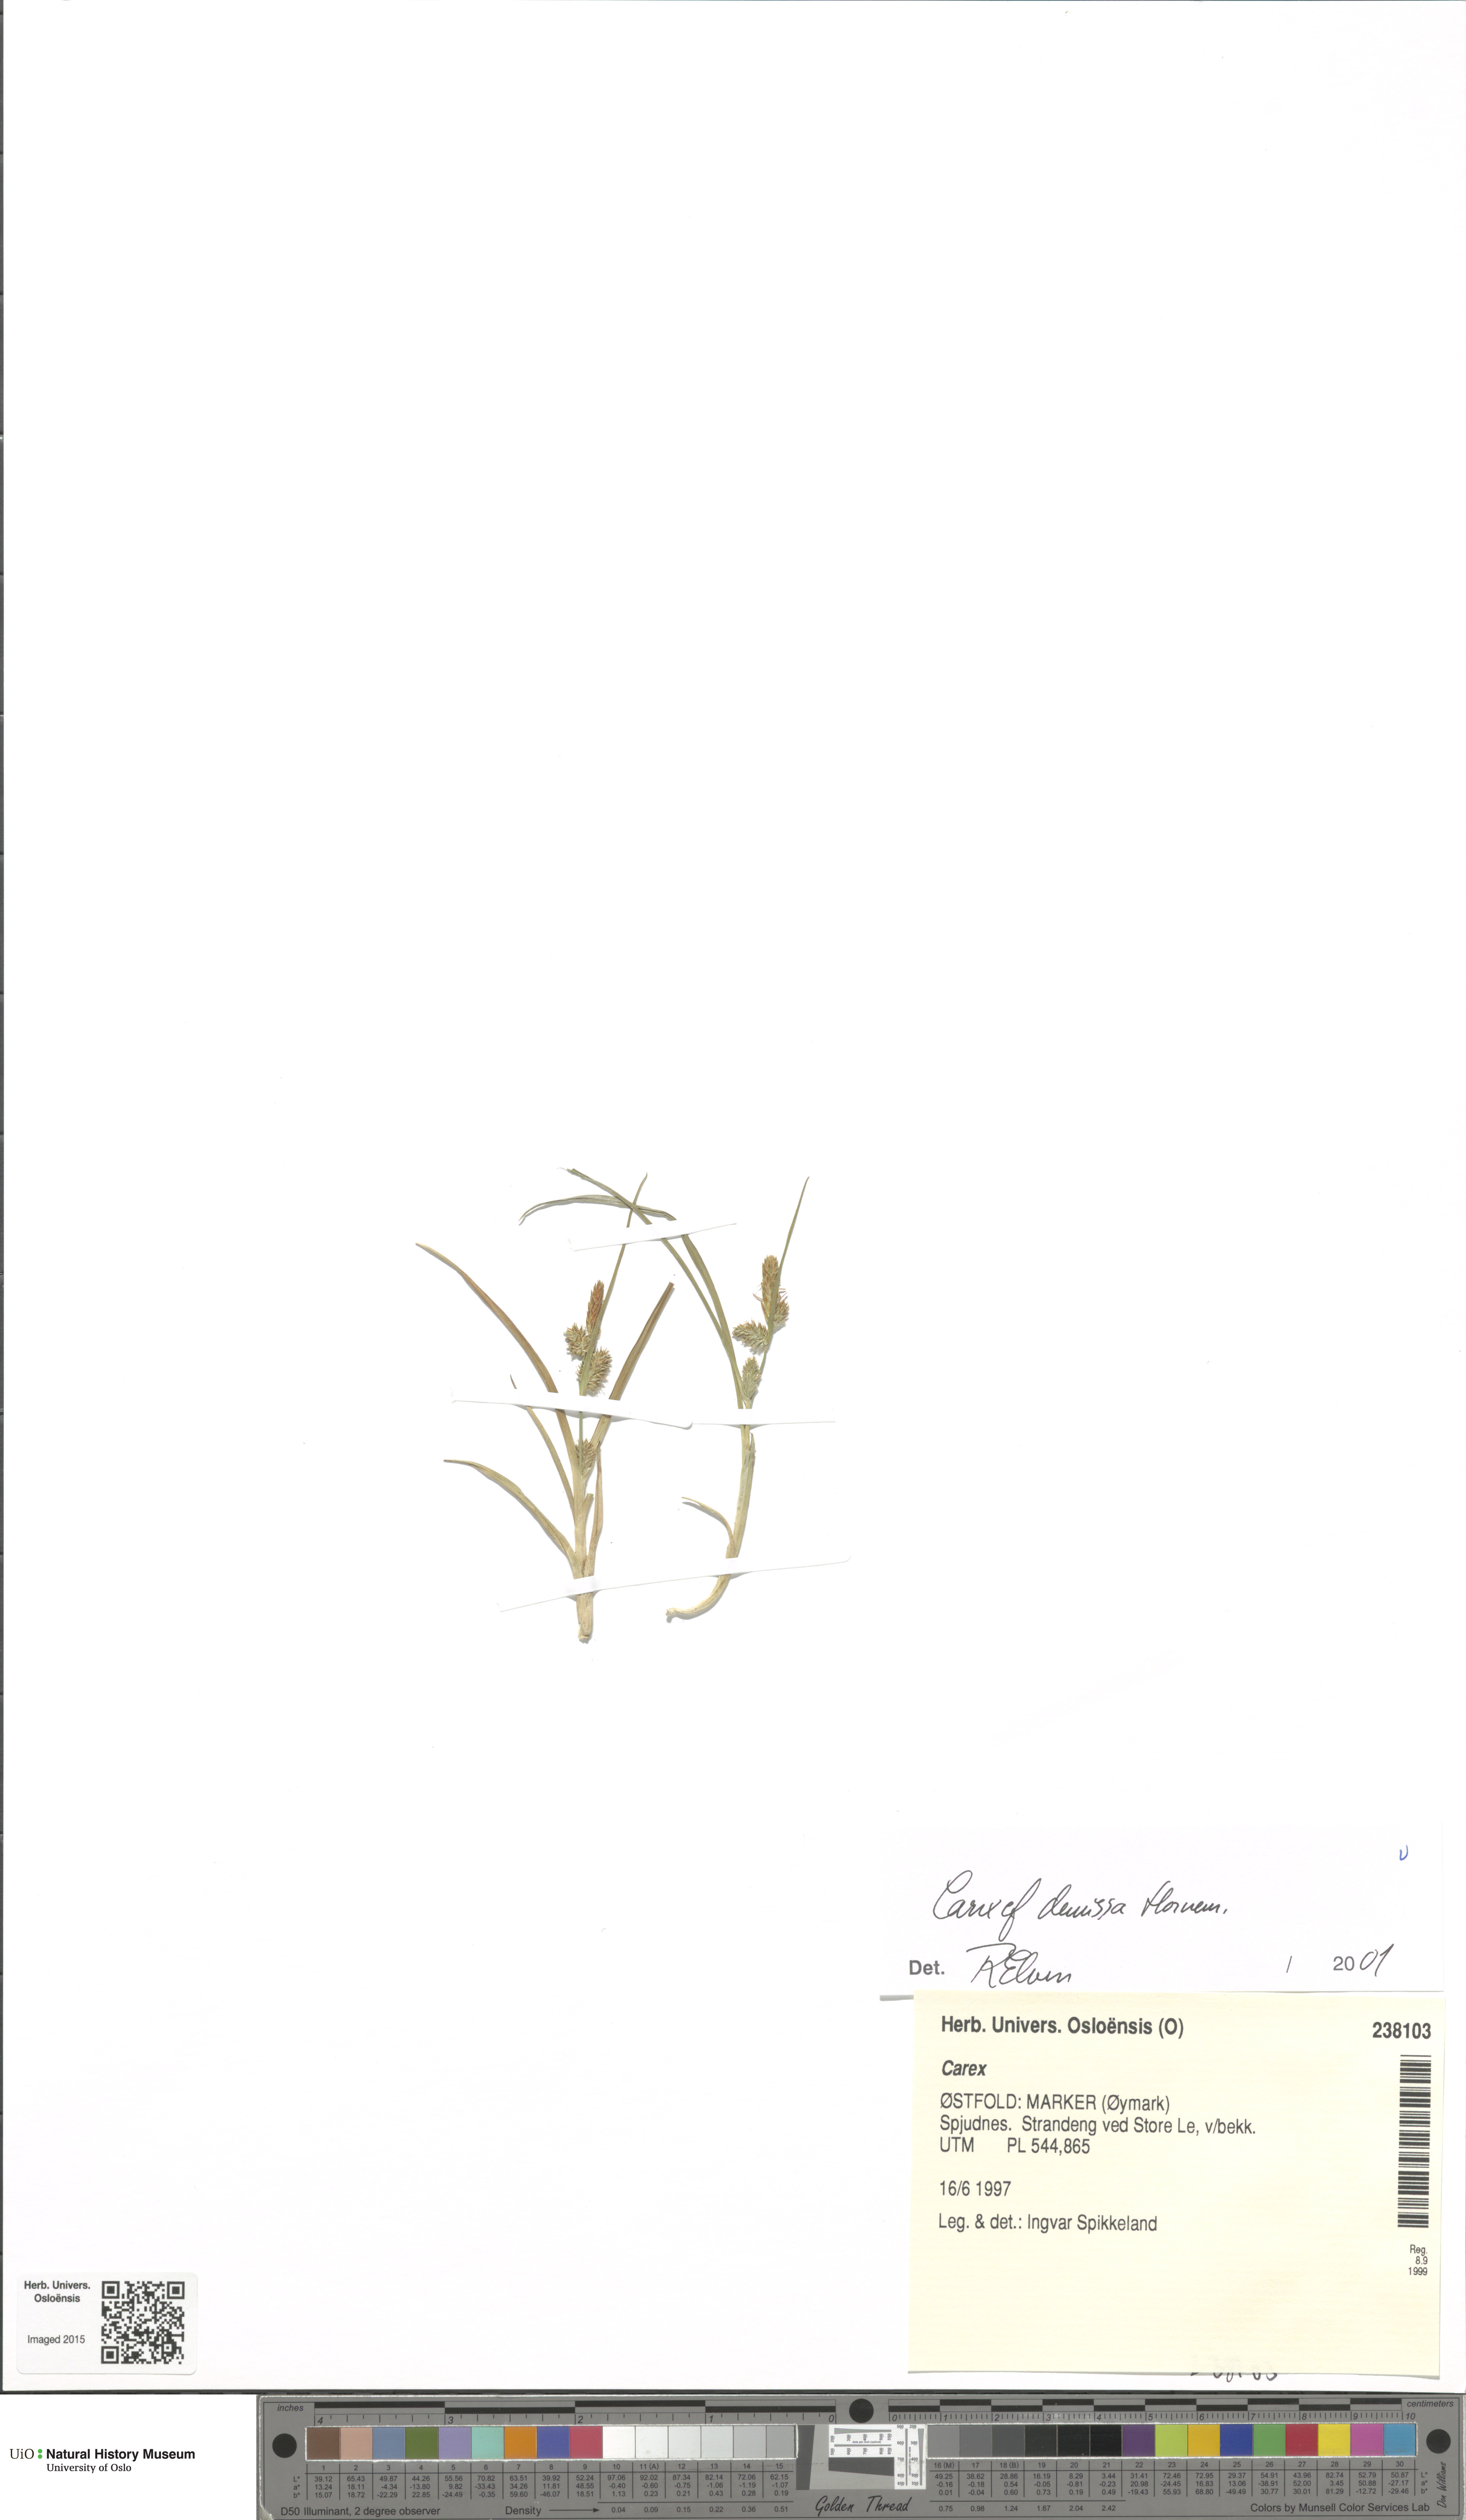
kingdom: Plantae
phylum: Tracheophyta
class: Liliopsida
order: Poales
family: Cyperaceae
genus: Carex
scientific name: Carex demissa
